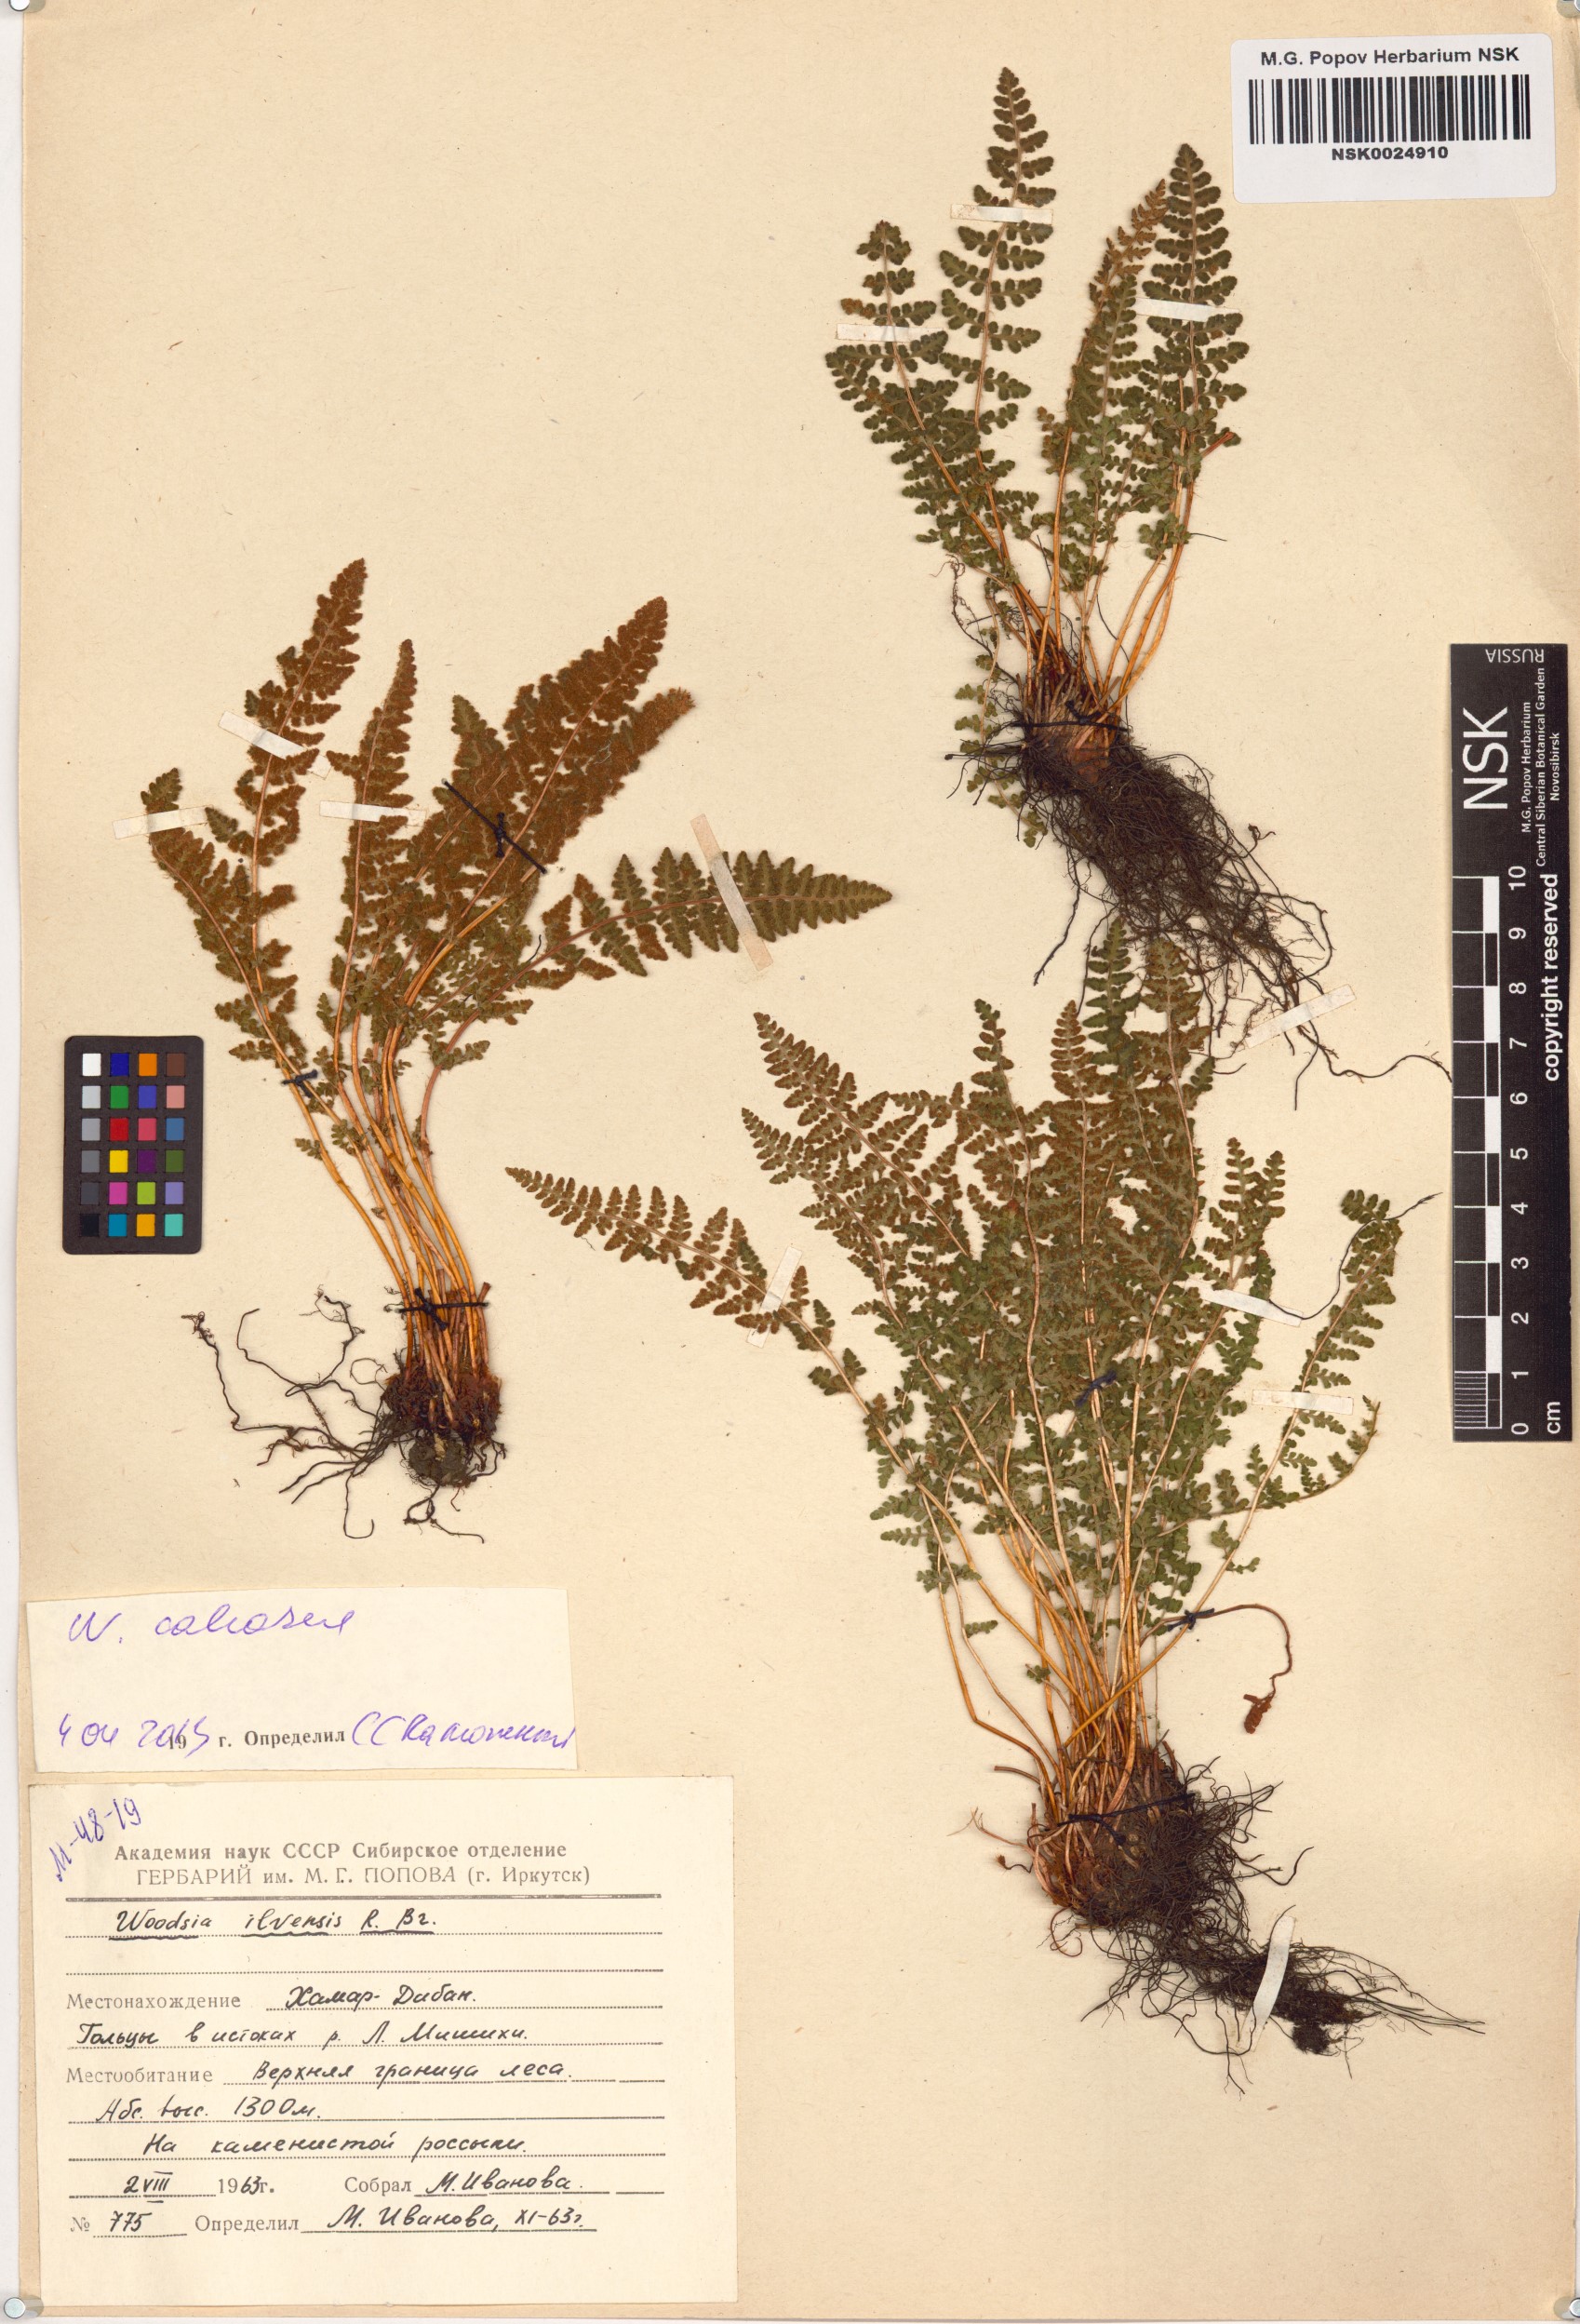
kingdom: Plantae
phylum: Tracheophyta
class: Polypodiopsida
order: Polypodiales
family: Woodsiaceae
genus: Woodsia
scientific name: Woodsia calcarea
